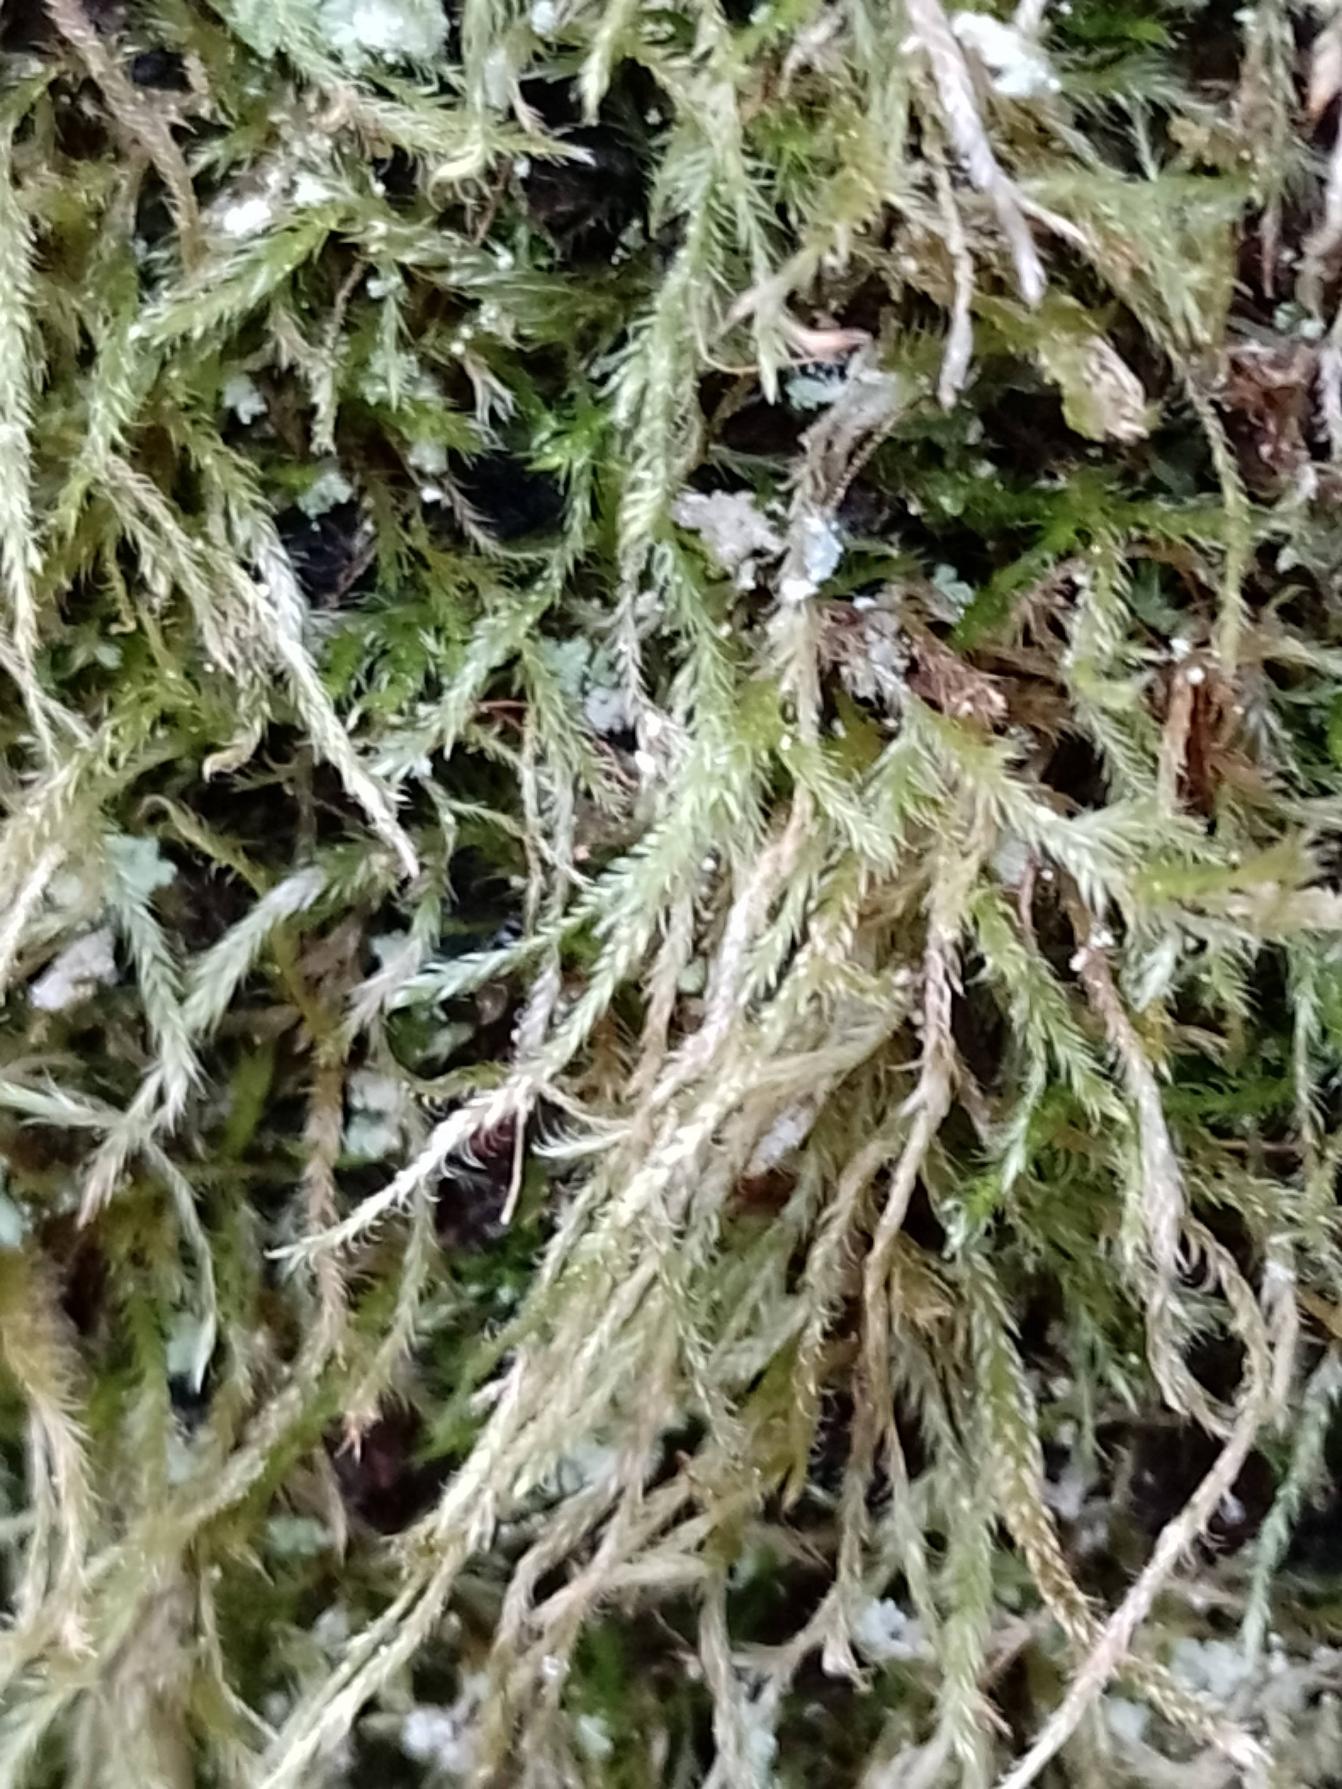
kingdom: Plantae
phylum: Bryophyta
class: Bryopsida
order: Hypnales
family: Hypnaceae
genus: Hypnum
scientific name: Hypnum
